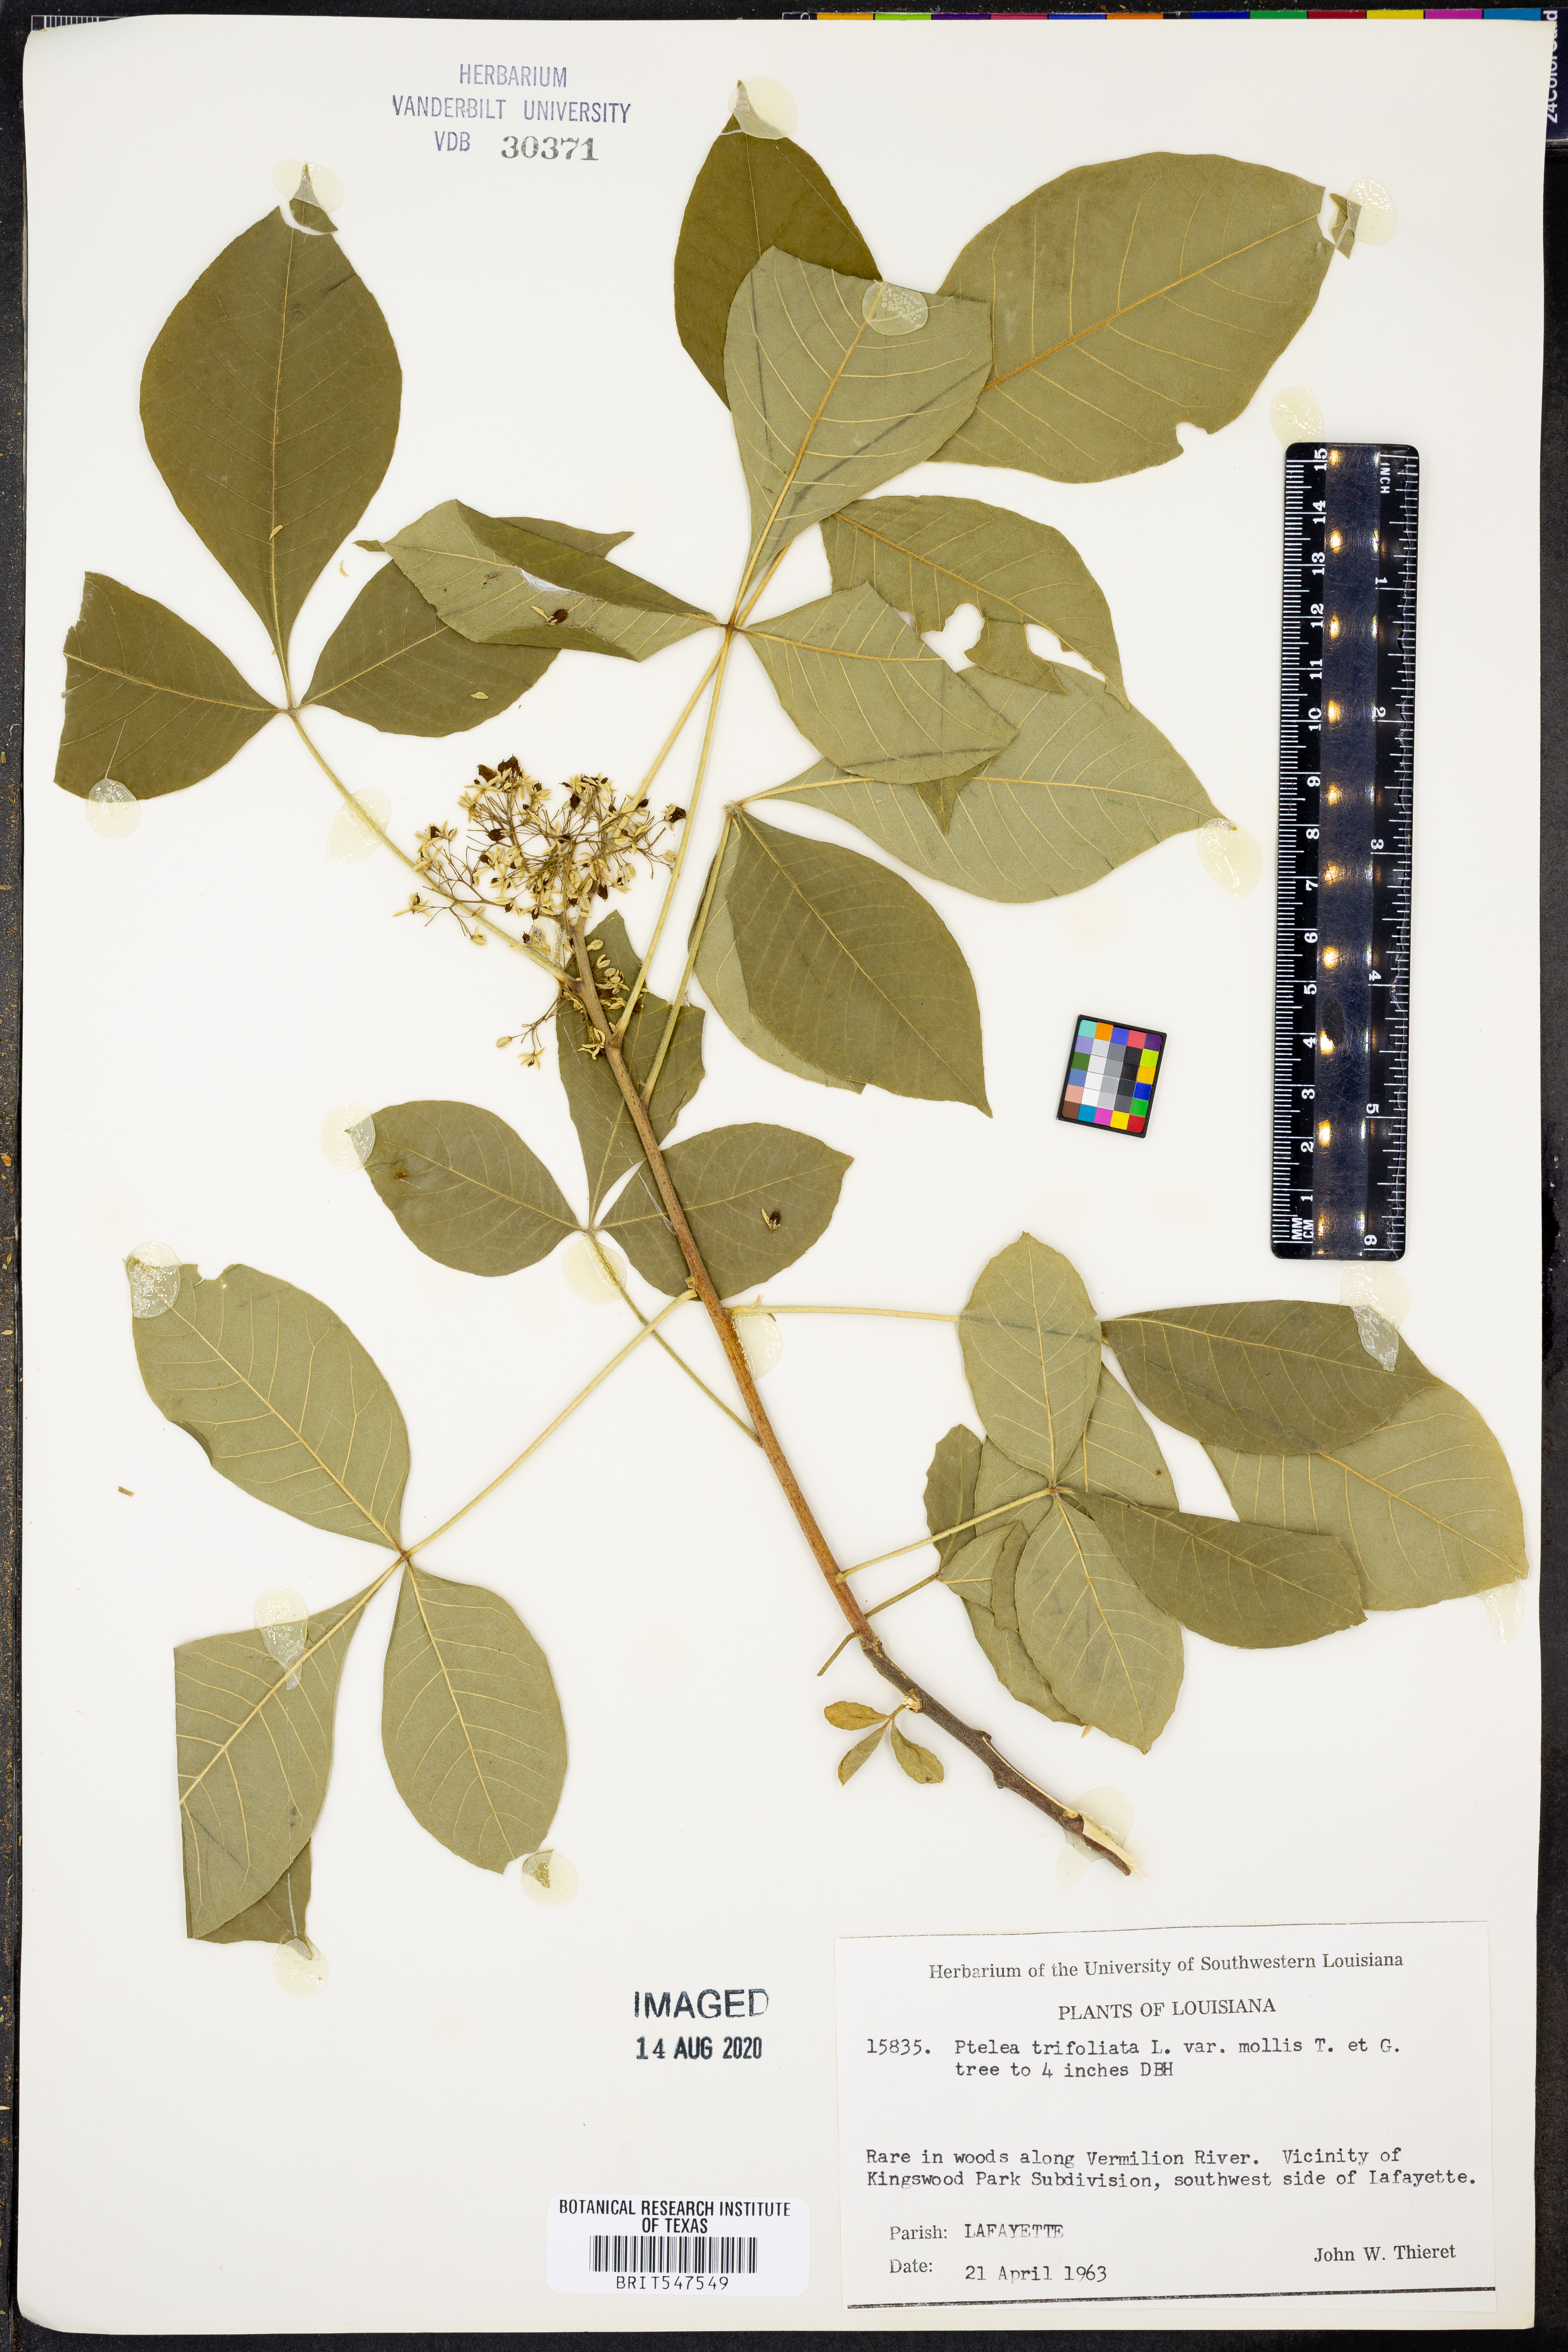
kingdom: Plantae
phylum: Tracheophyta
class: Magnoliopsida
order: Sapindales
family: Rutaceae
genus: Ptelea
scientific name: Ptelea trifoliata
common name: Common hop-tree
